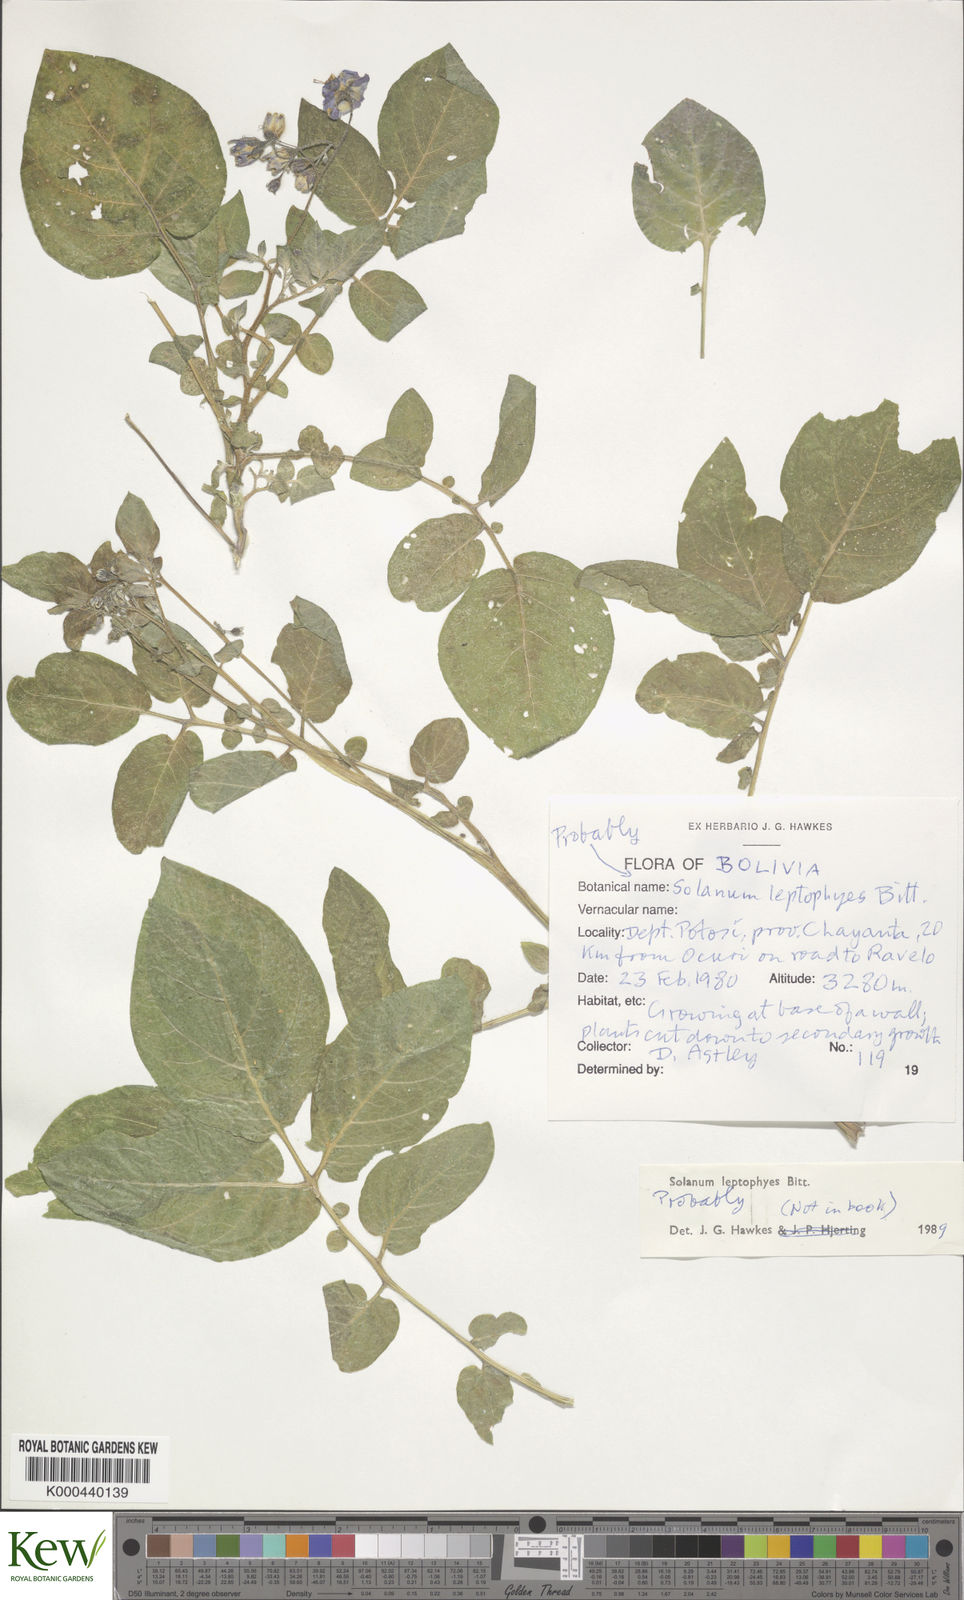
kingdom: Plantae
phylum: Tracheophyta
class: Magnoliopsida
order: Solanales
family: Solanaceae
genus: Solanum
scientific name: Solanum brevicaule
